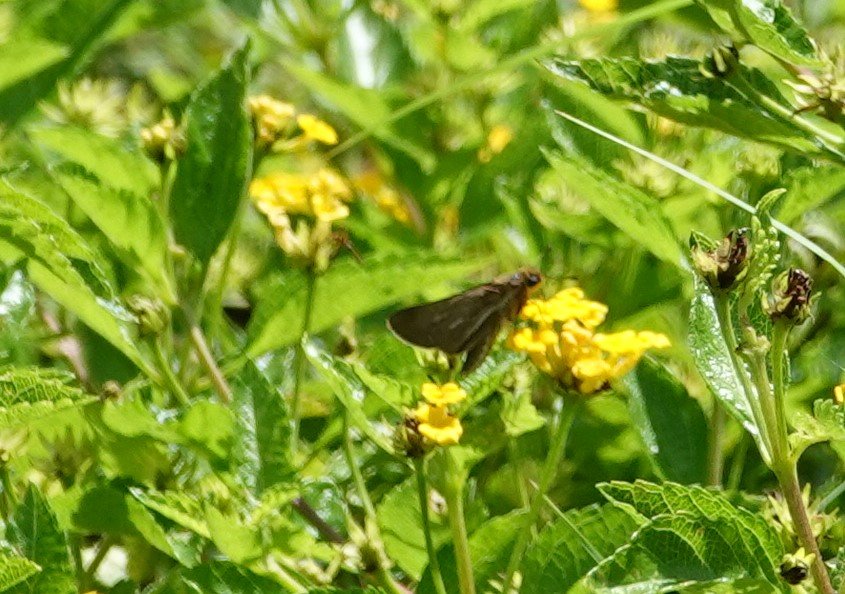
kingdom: Animalia
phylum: Arthropoda
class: Insecta
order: Lepidoptera
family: Hesperiidae
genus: Panoquina
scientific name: Panoquina panoquin
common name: Salt Marsh Skipper
